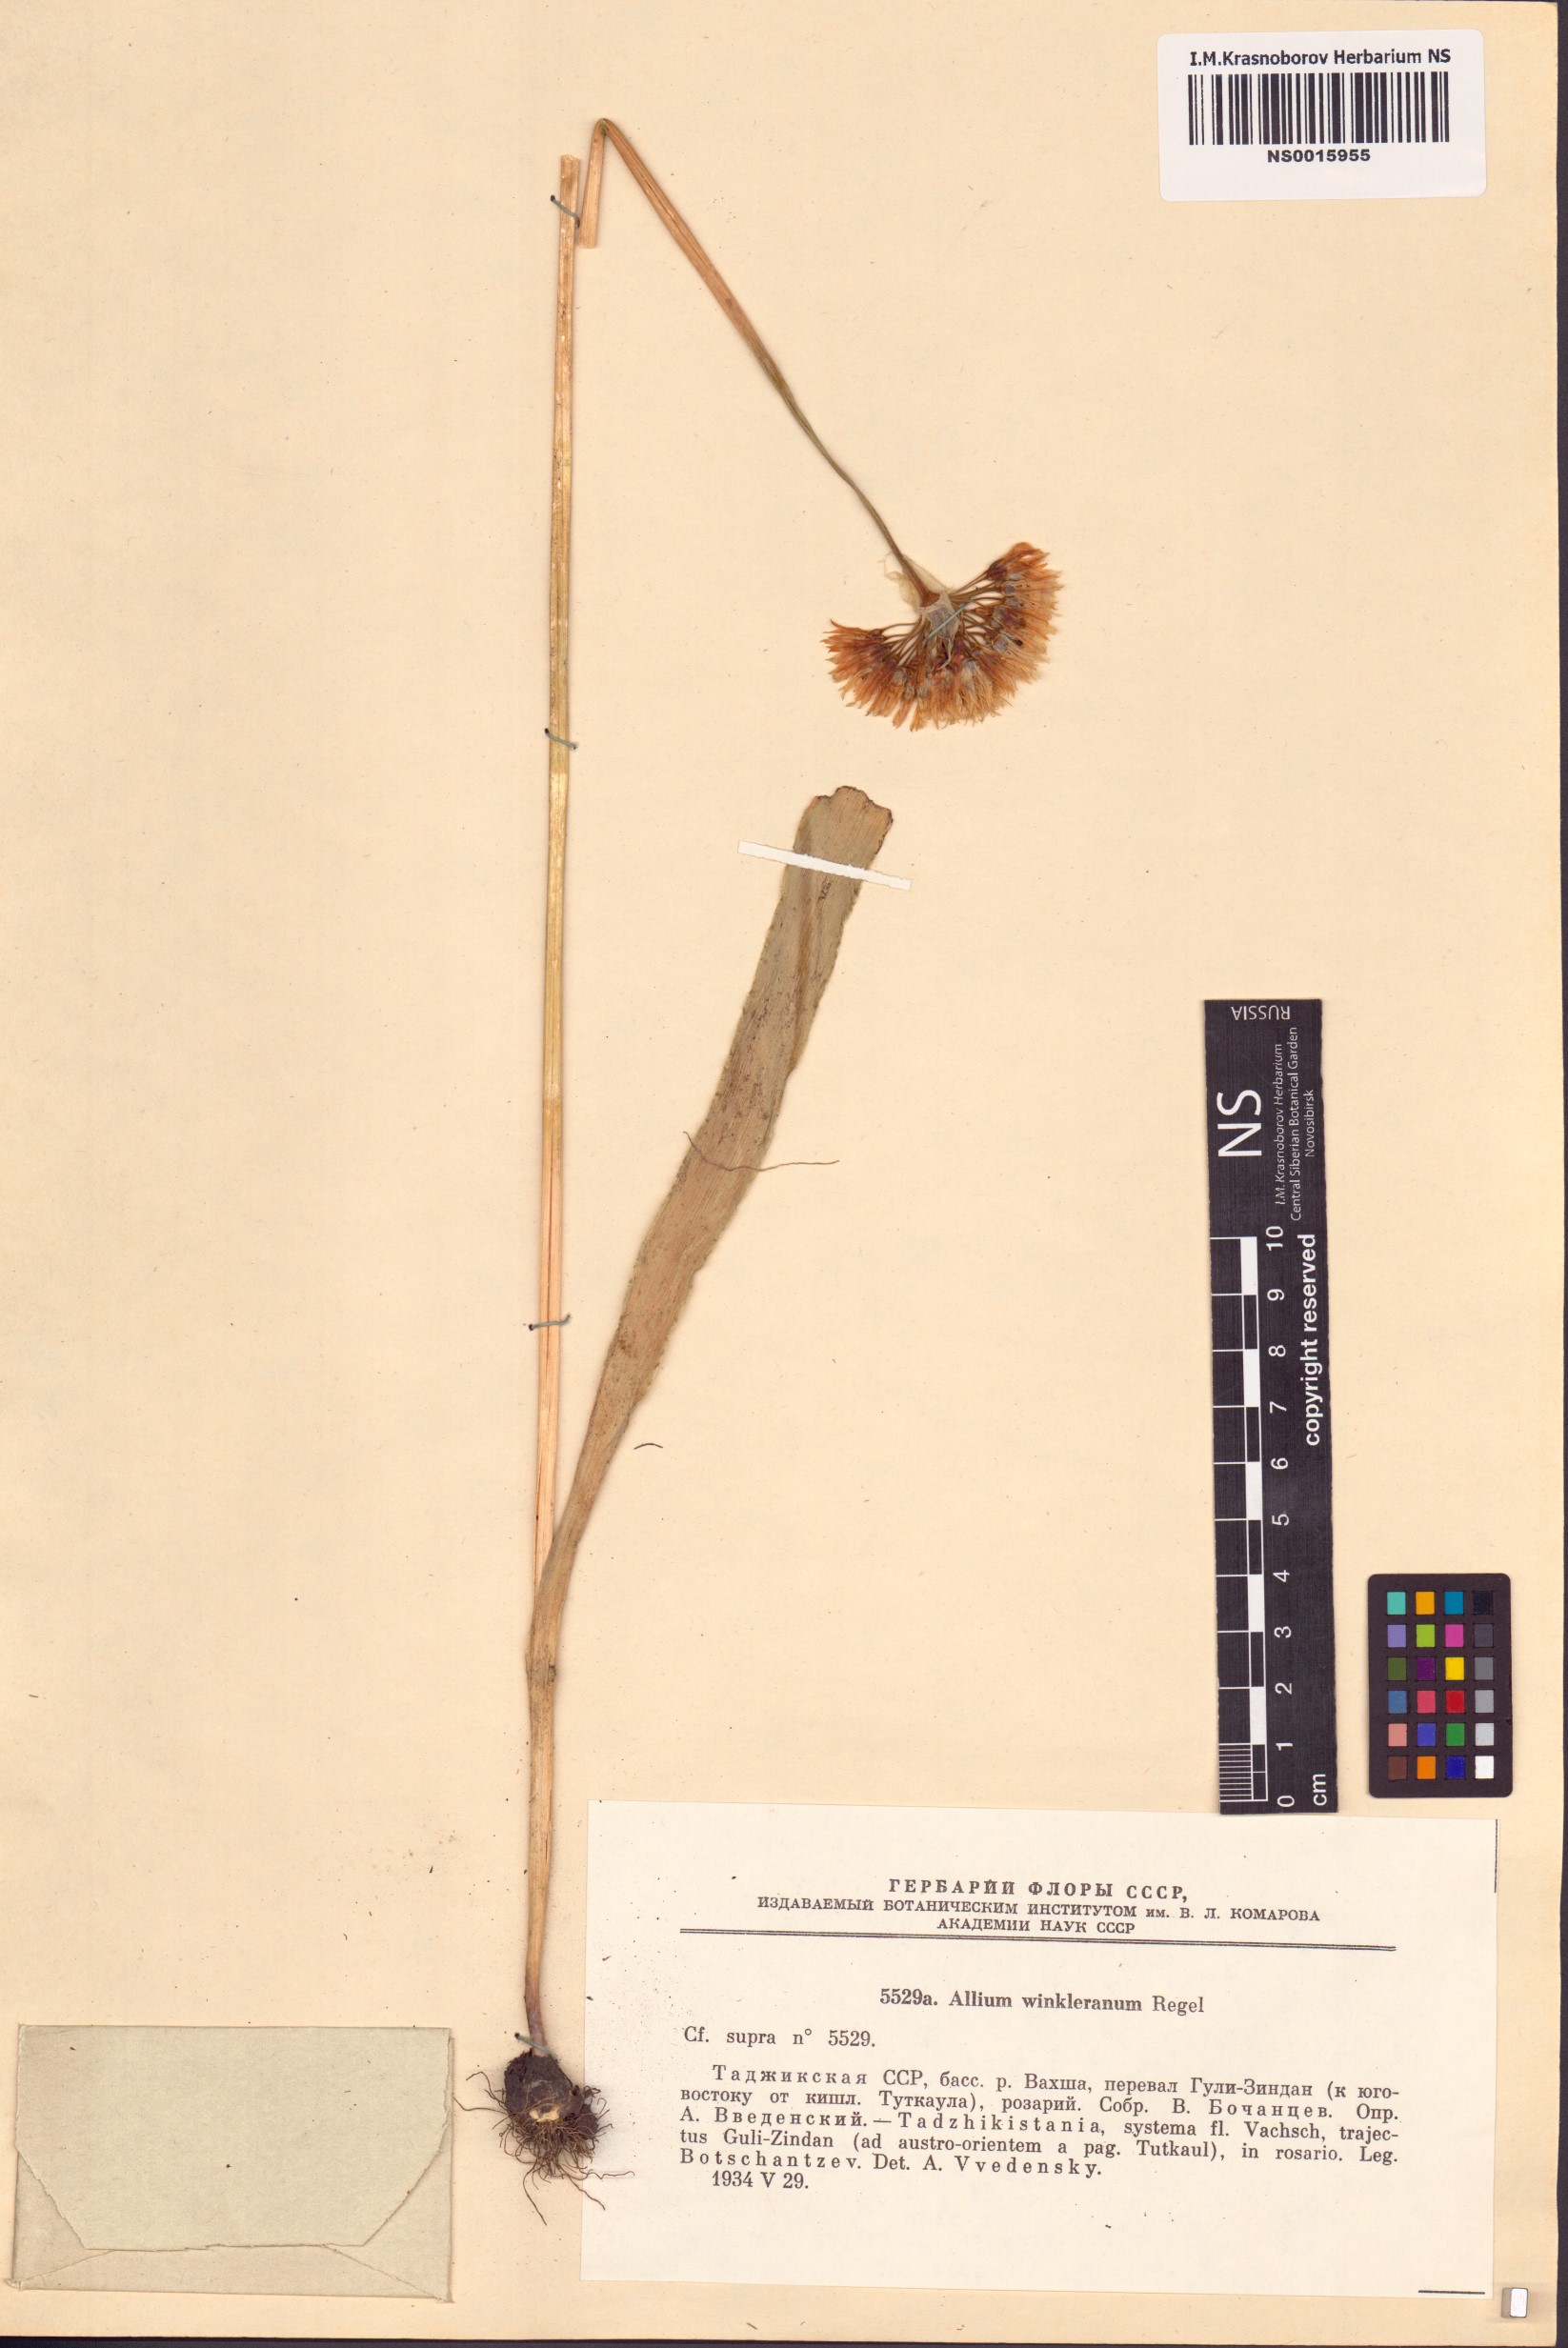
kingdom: Plantae
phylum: Tracheophyta
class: Liliopsida
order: Asparagales
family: Amaryllidaceae
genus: Allium
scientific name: Allium winklerianum
